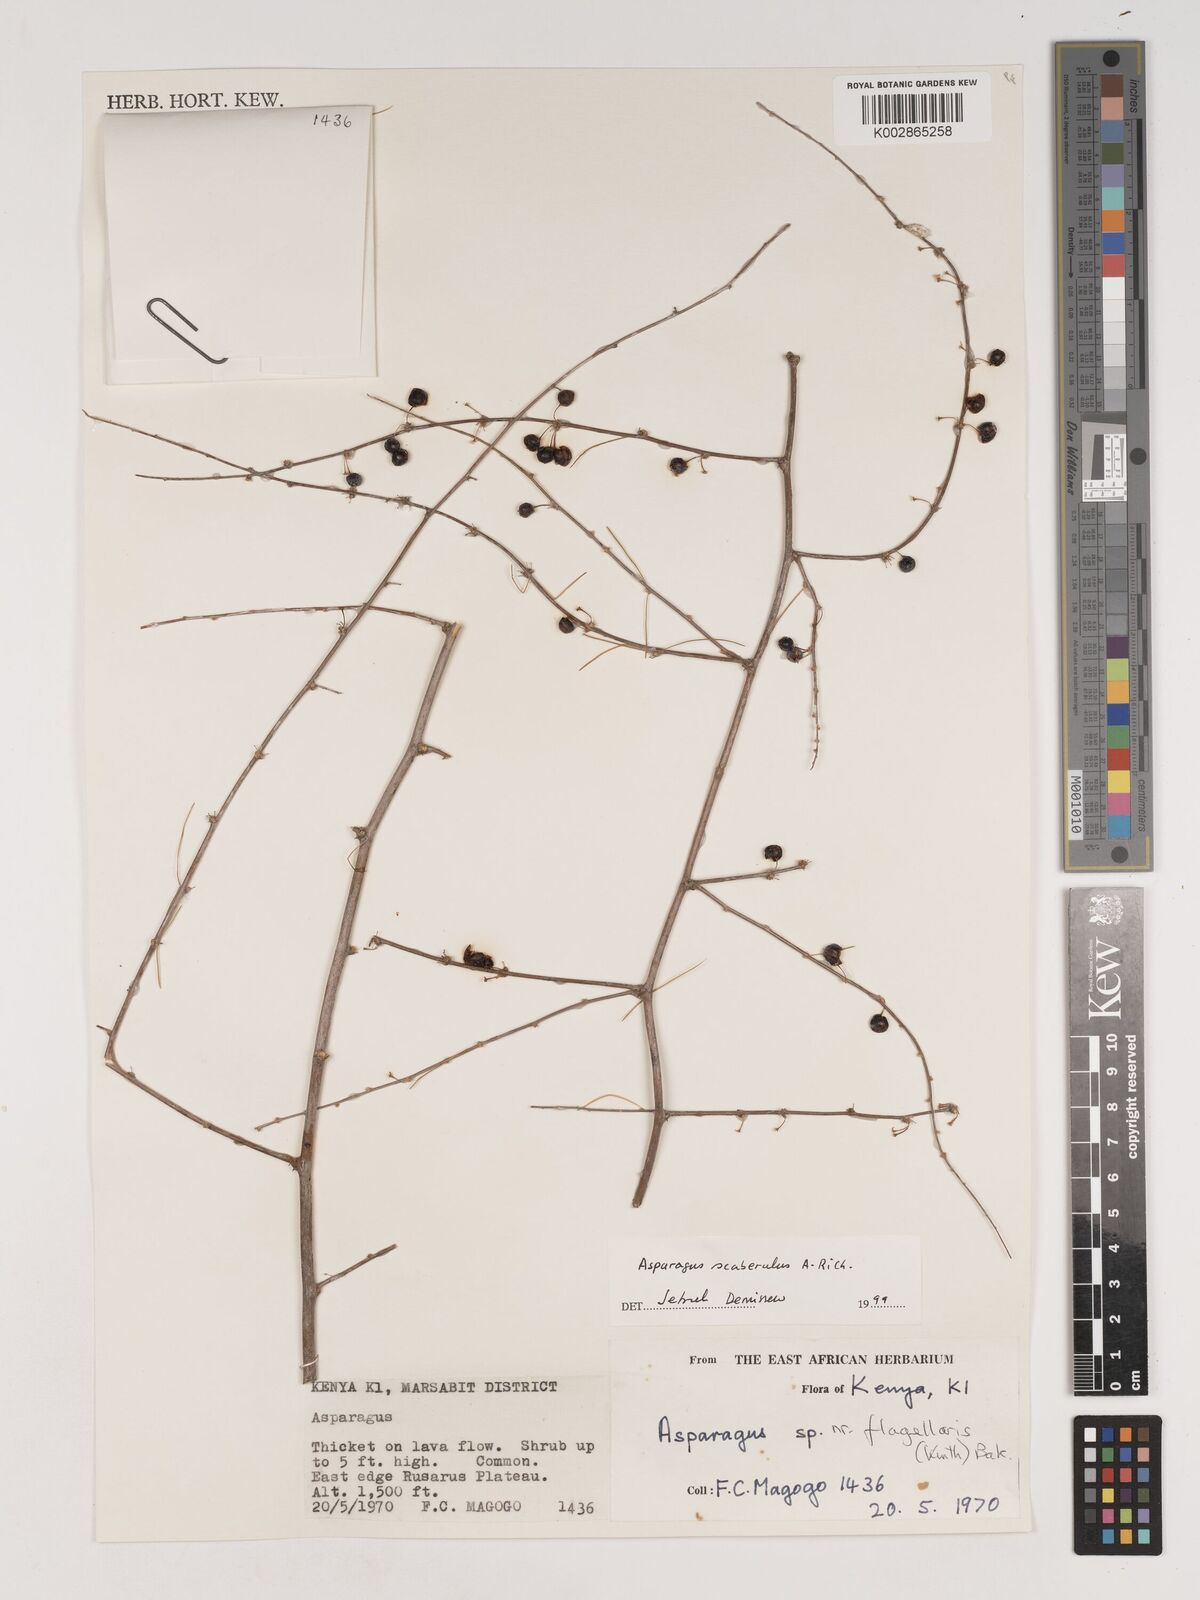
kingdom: Plantae
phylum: Tracheophyta
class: Liliopsida
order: Asparagales
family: Asparagaceae
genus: Asparagus
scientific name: Asparagus scaberulus
